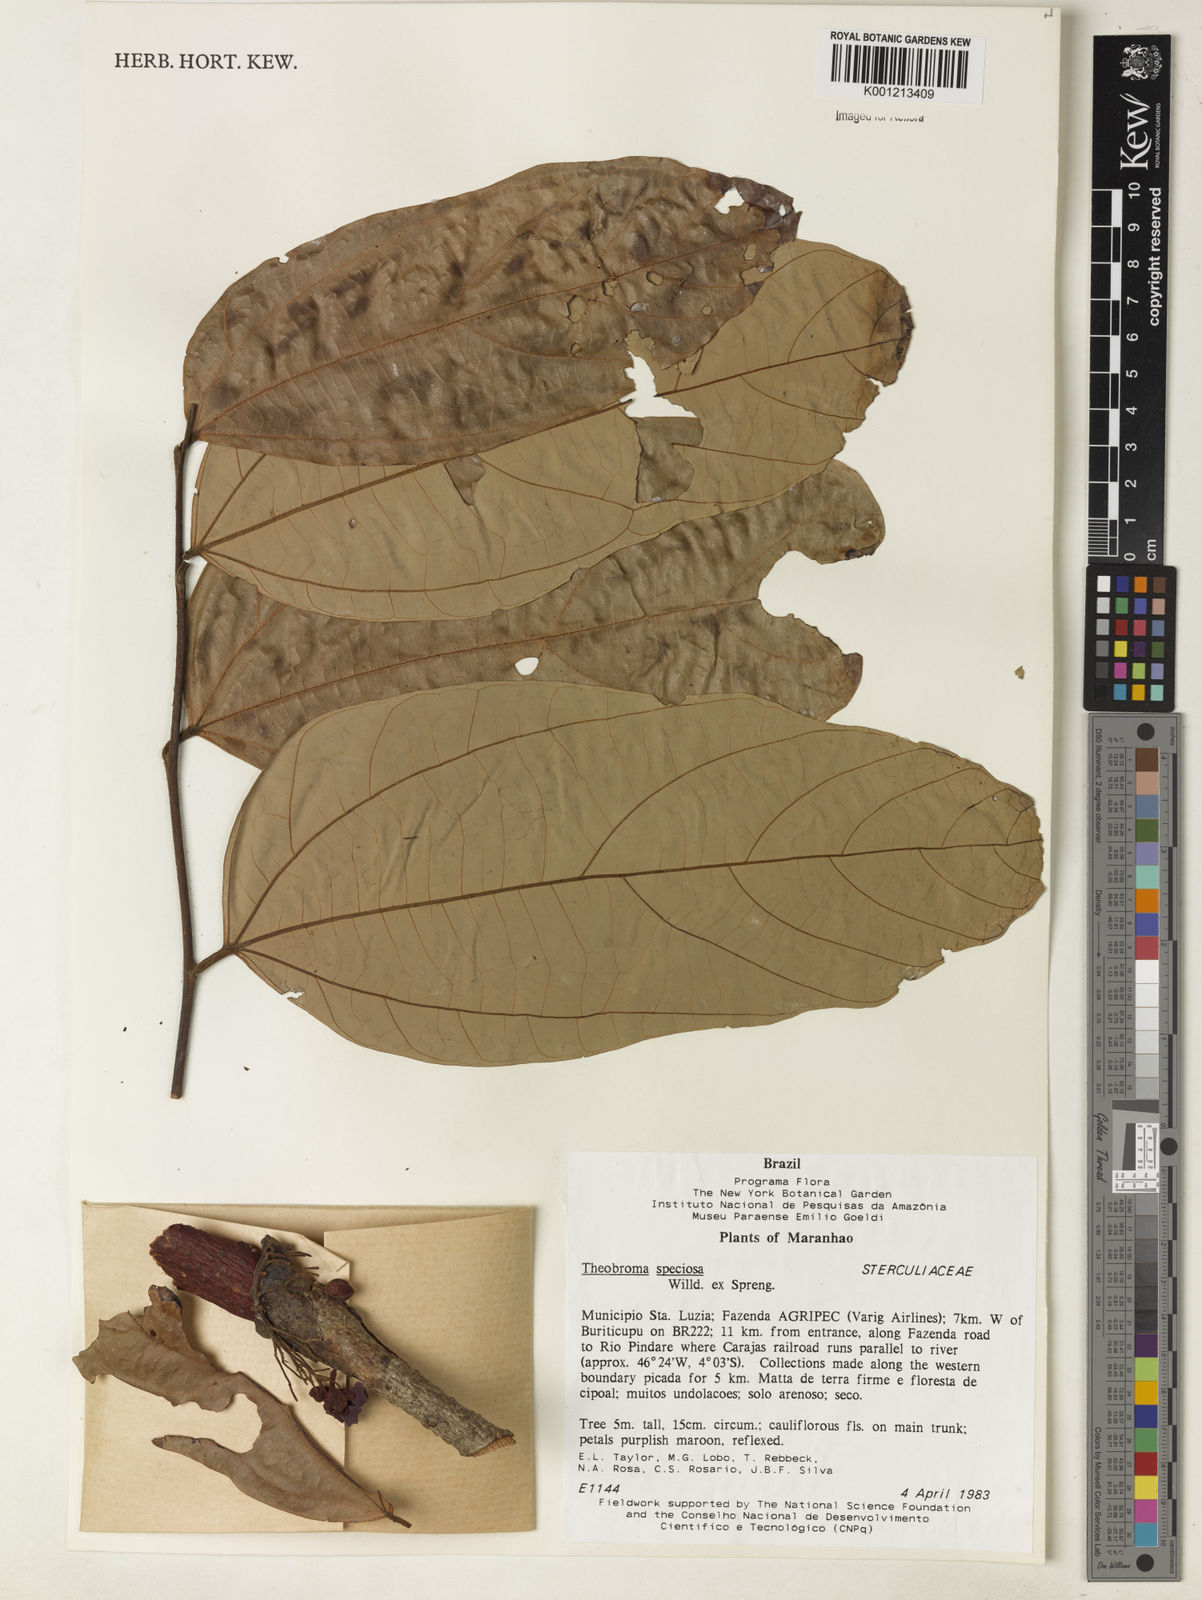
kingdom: Plantae
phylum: Tracheophyta
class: Magnoliopsida
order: Malvales
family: Malvaceae
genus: Theobroma
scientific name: Theobroma speciosum
